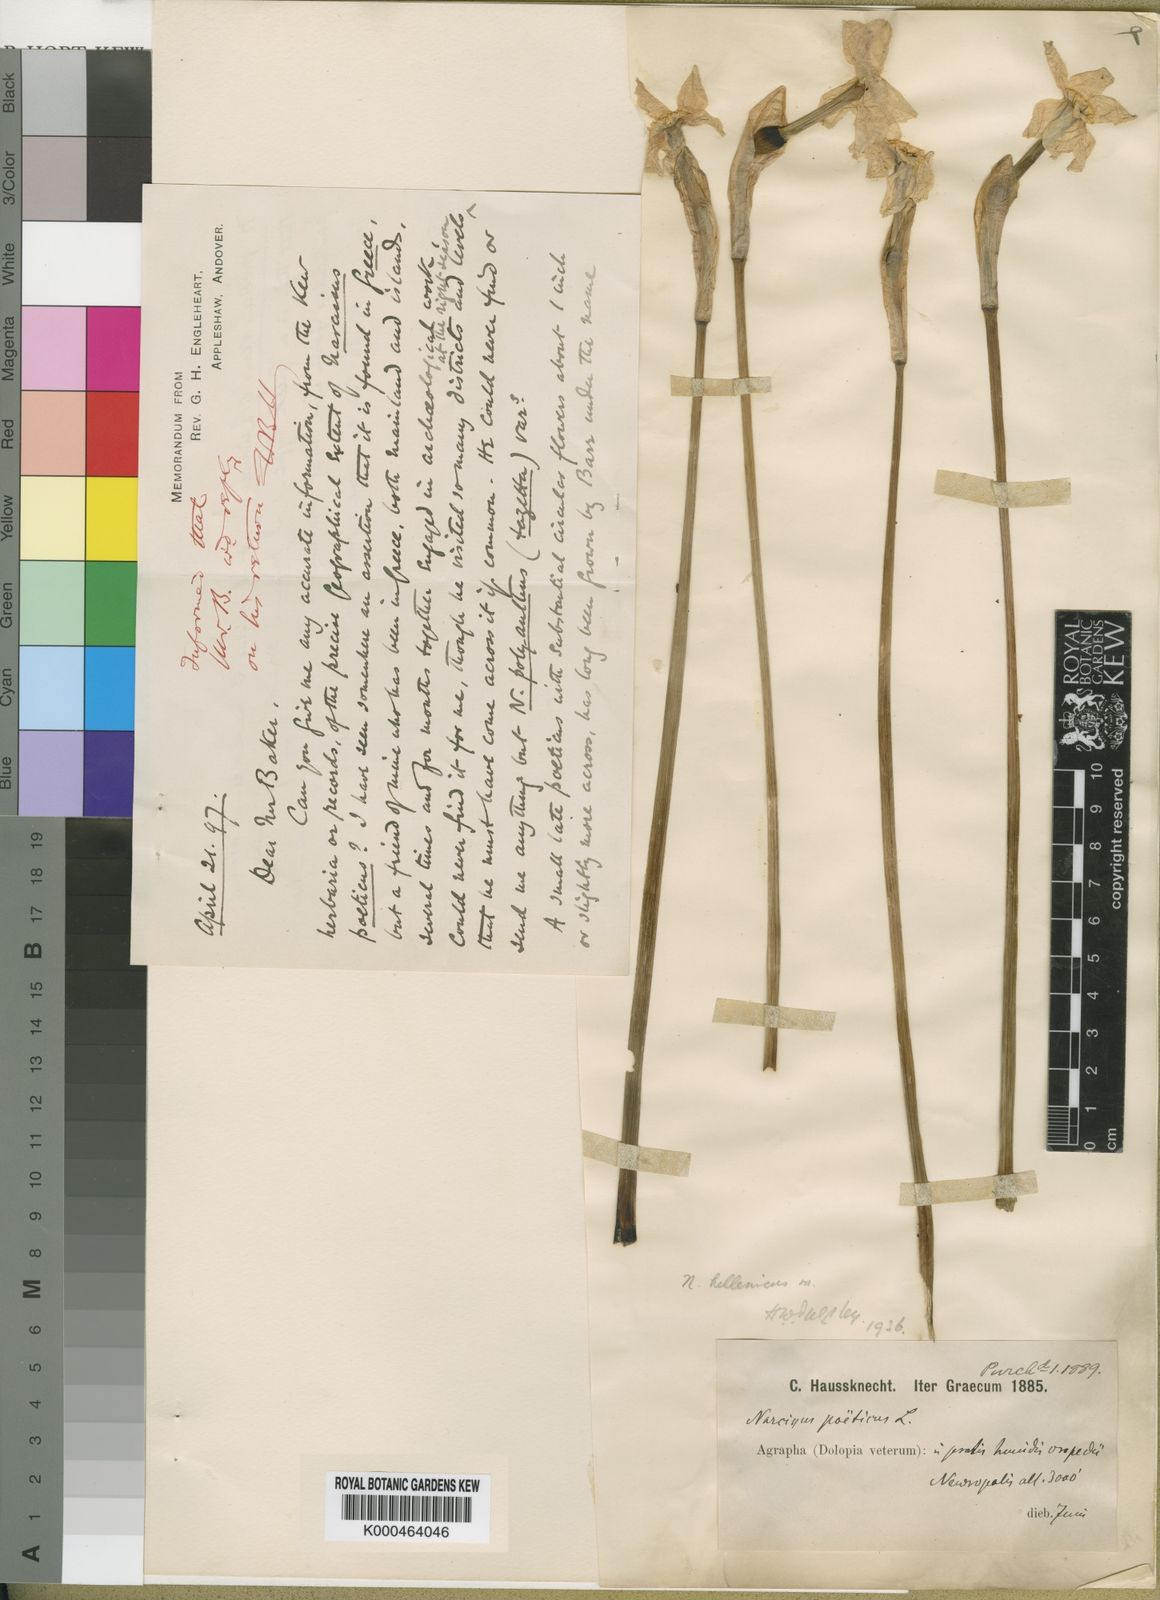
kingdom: Plantae
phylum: Tracheophyta
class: Liliopsida
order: Asparagales
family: Amaryllidaceae
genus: Narcissus
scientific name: Narcissus poeticus
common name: Pheasant's-eye daffodil
